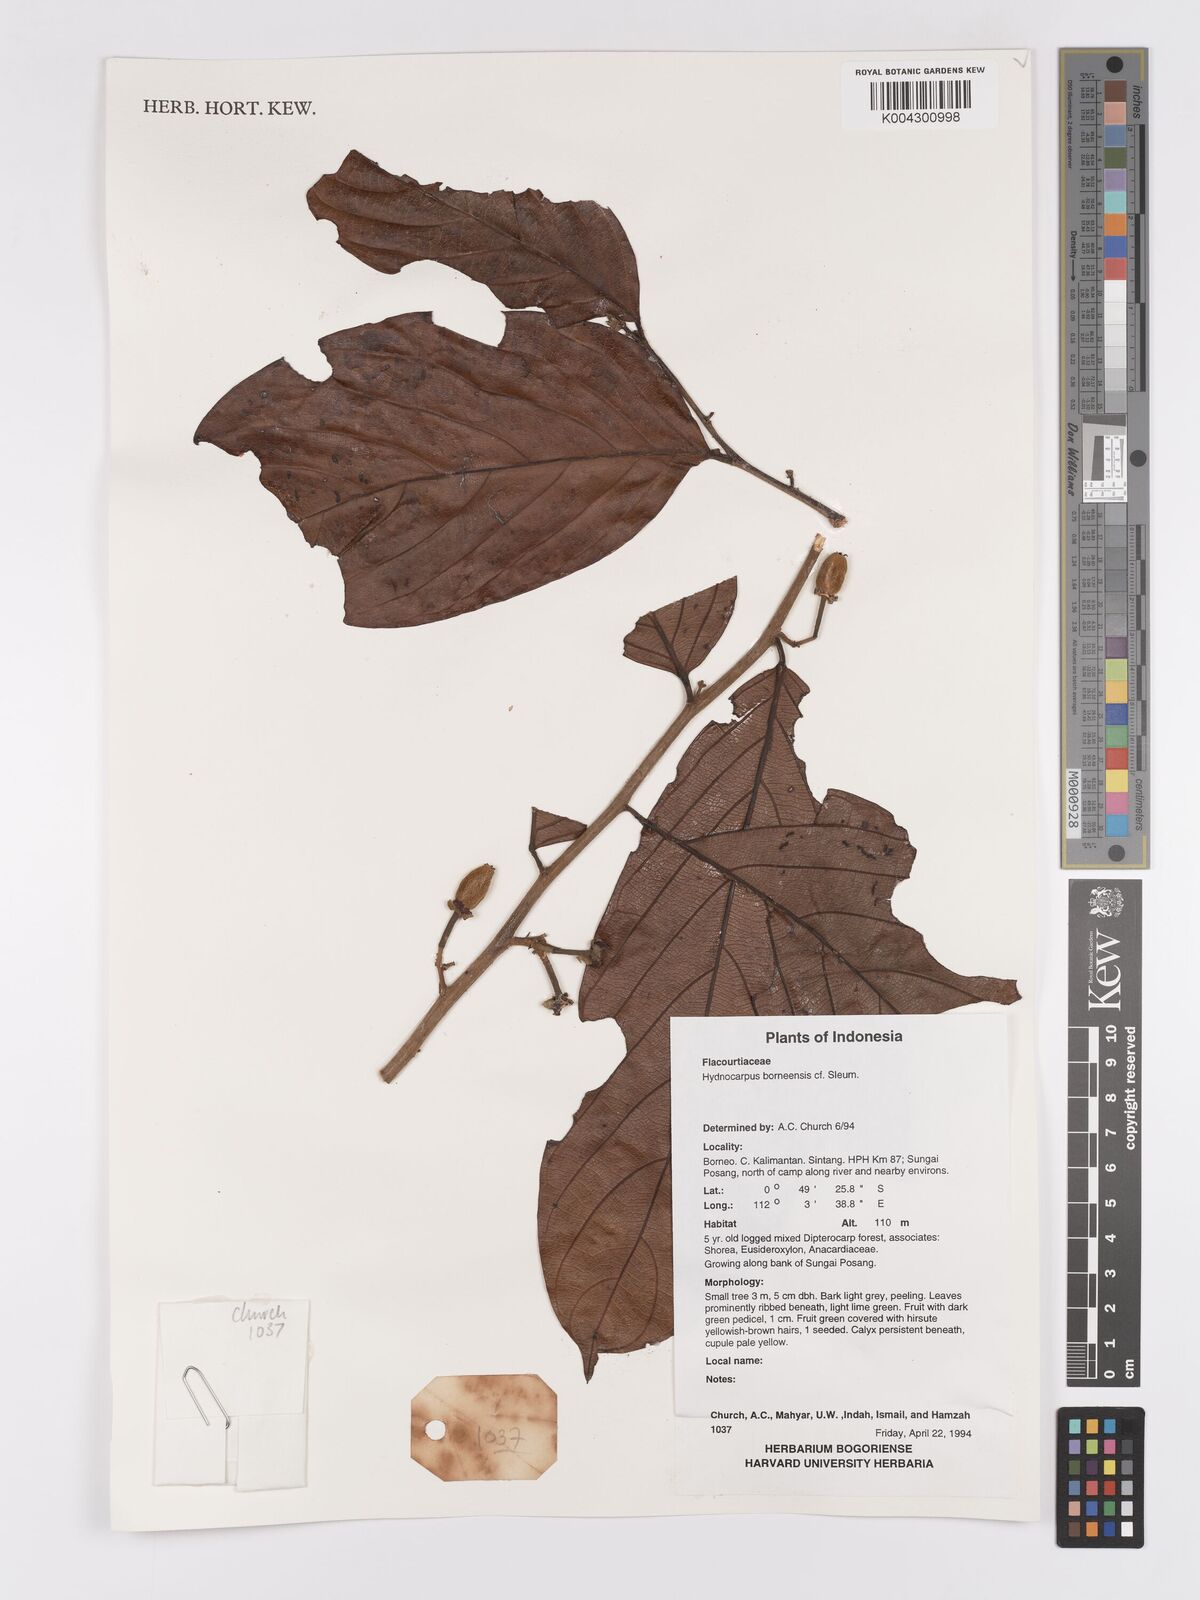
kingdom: Plantae
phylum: Tracheophyta
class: Magnoliopsida
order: Malpighiales
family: Achariaceae
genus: Hydnocarpus
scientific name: Hydnocarpus borneensis
